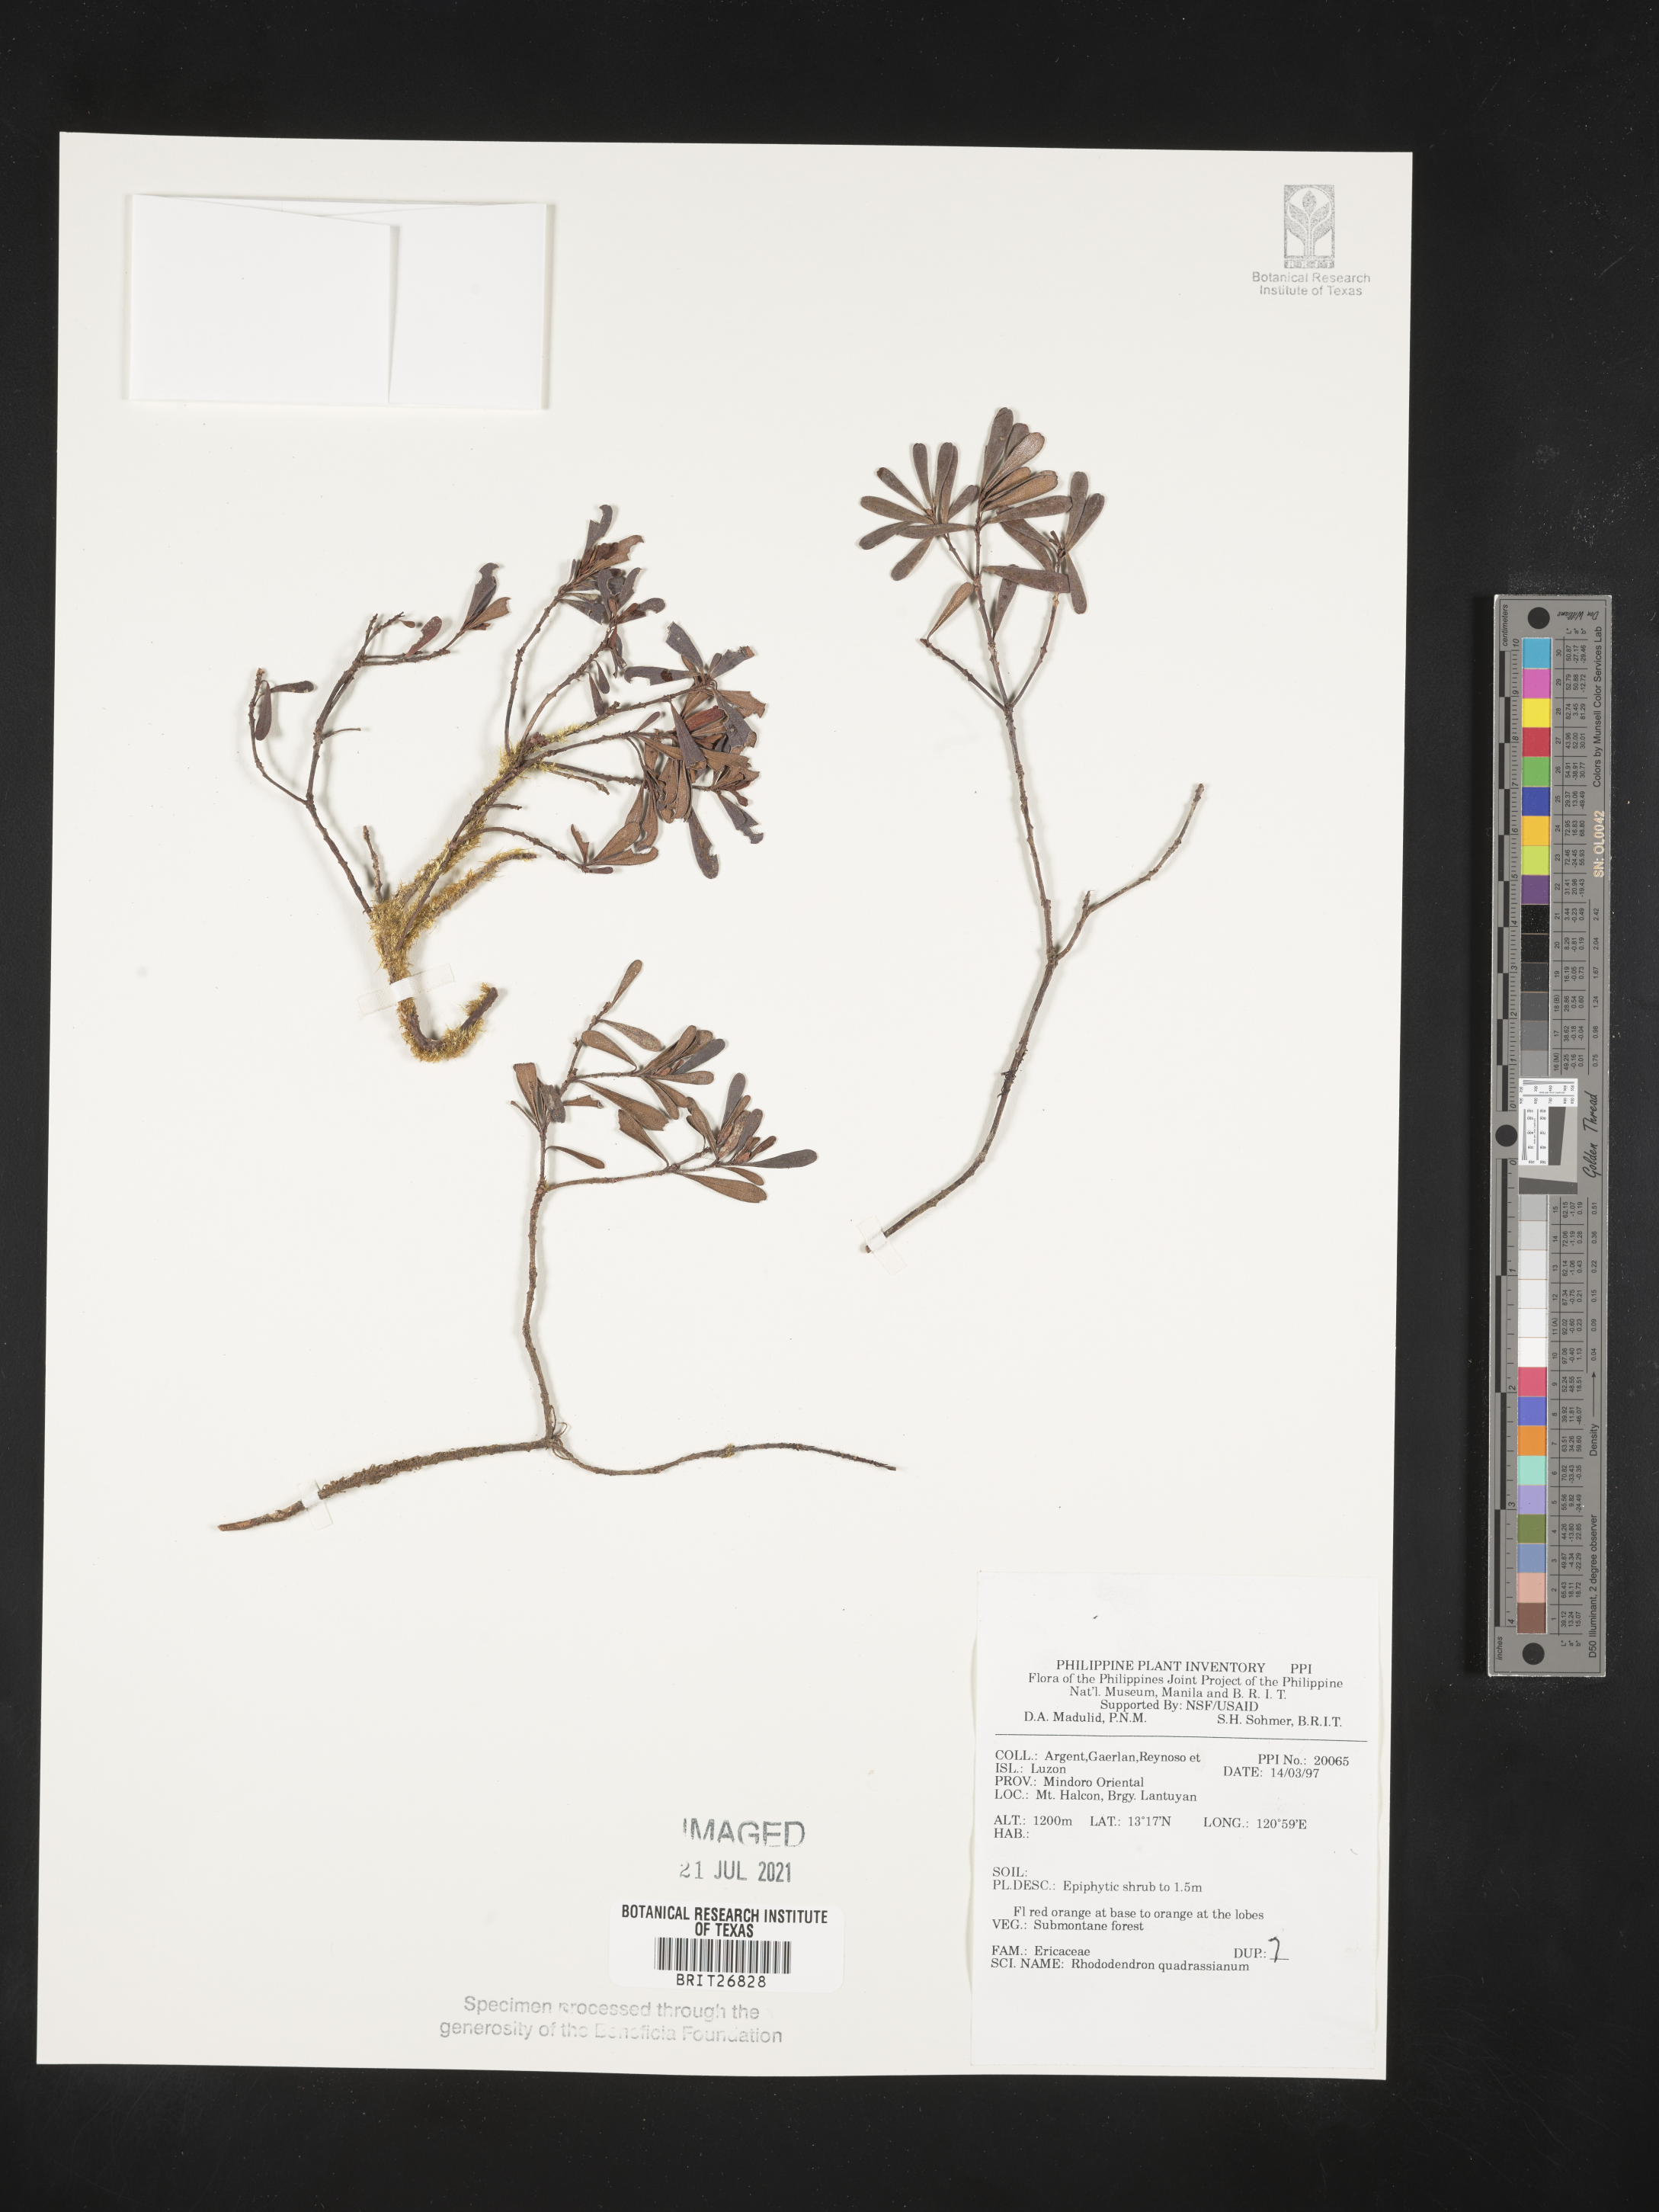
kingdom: Plantae
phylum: Tracheophyta
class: Magnoliopsida
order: Ericales
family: Ericaceae
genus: Rhododendron
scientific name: Rhododendron quadrasianum
